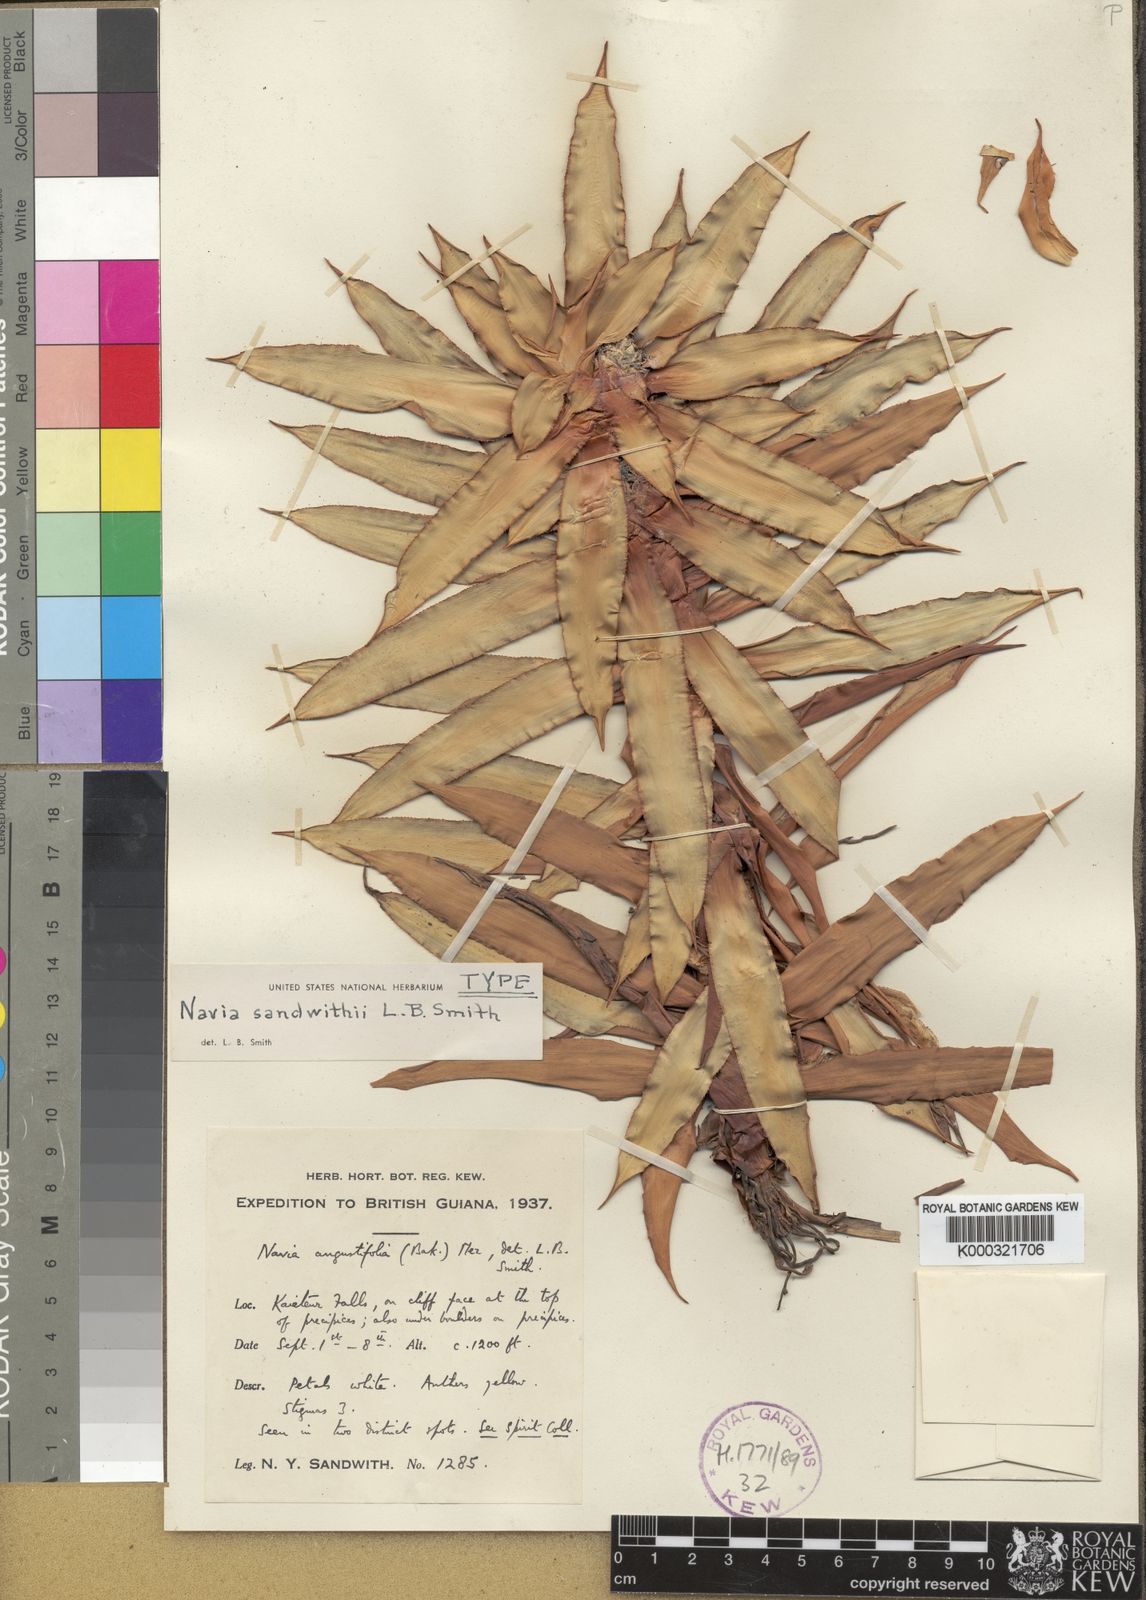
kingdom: Plantae
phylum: Tracheophyta
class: Liliopsida
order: Poales
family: Bromeliaceae
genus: Navia
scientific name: Navia sandwithii
